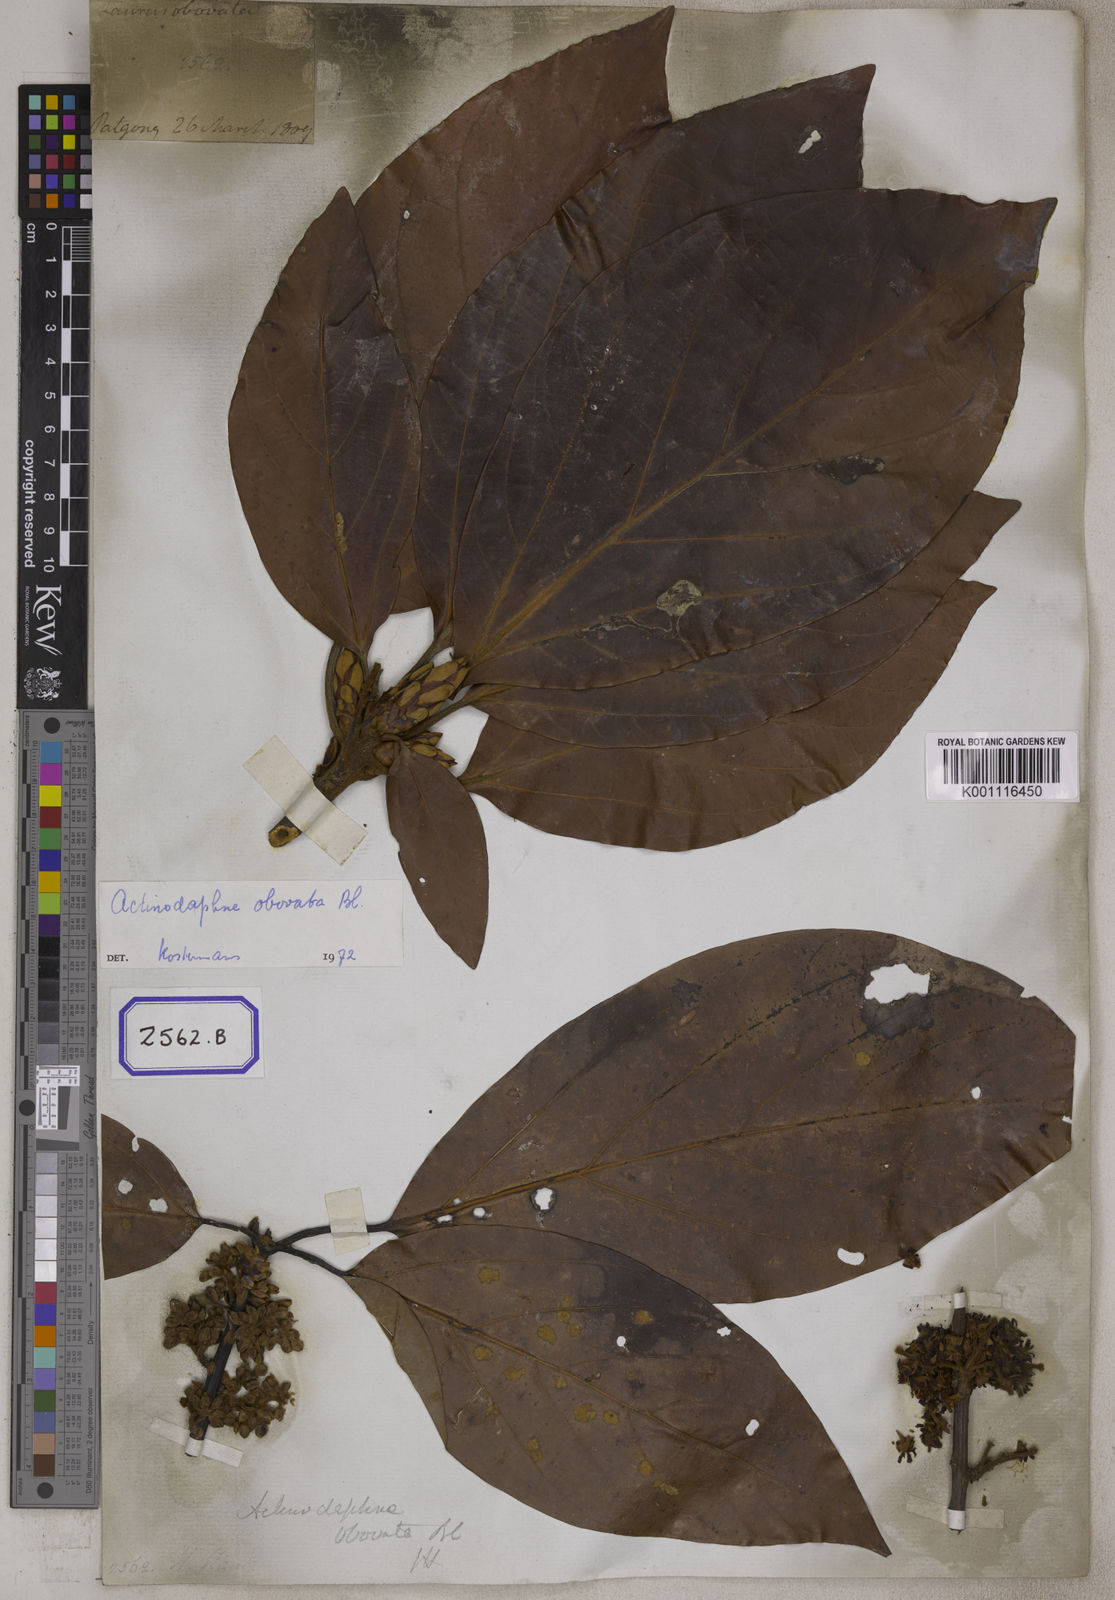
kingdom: Plantae
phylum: Tracheophyta
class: Magnoliopsida
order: Laurales
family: Lauraceae
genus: Actinodaphne
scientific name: Actinodaphne obovata
